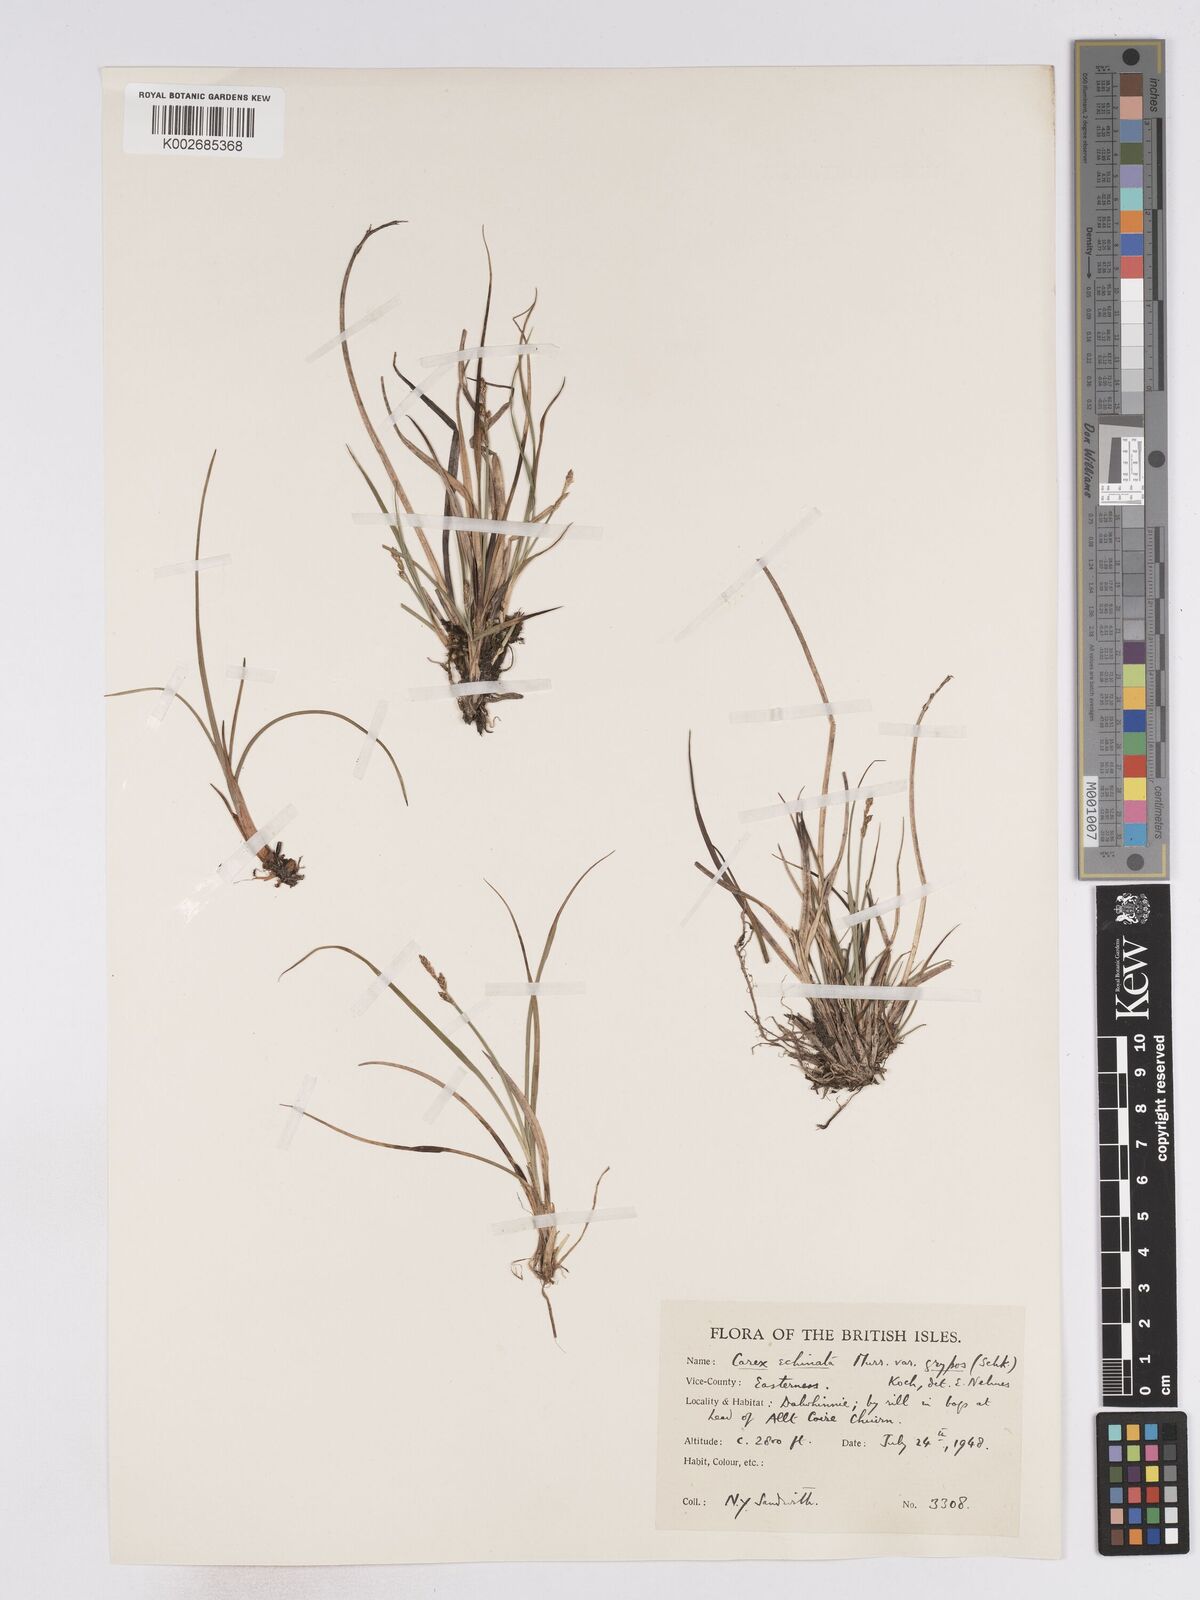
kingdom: Plantae
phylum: Tracheophyta
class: Liliopsida
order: Poales
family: Cyperaceae
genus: Carex
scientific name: Carex echinata
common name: Star sedge
